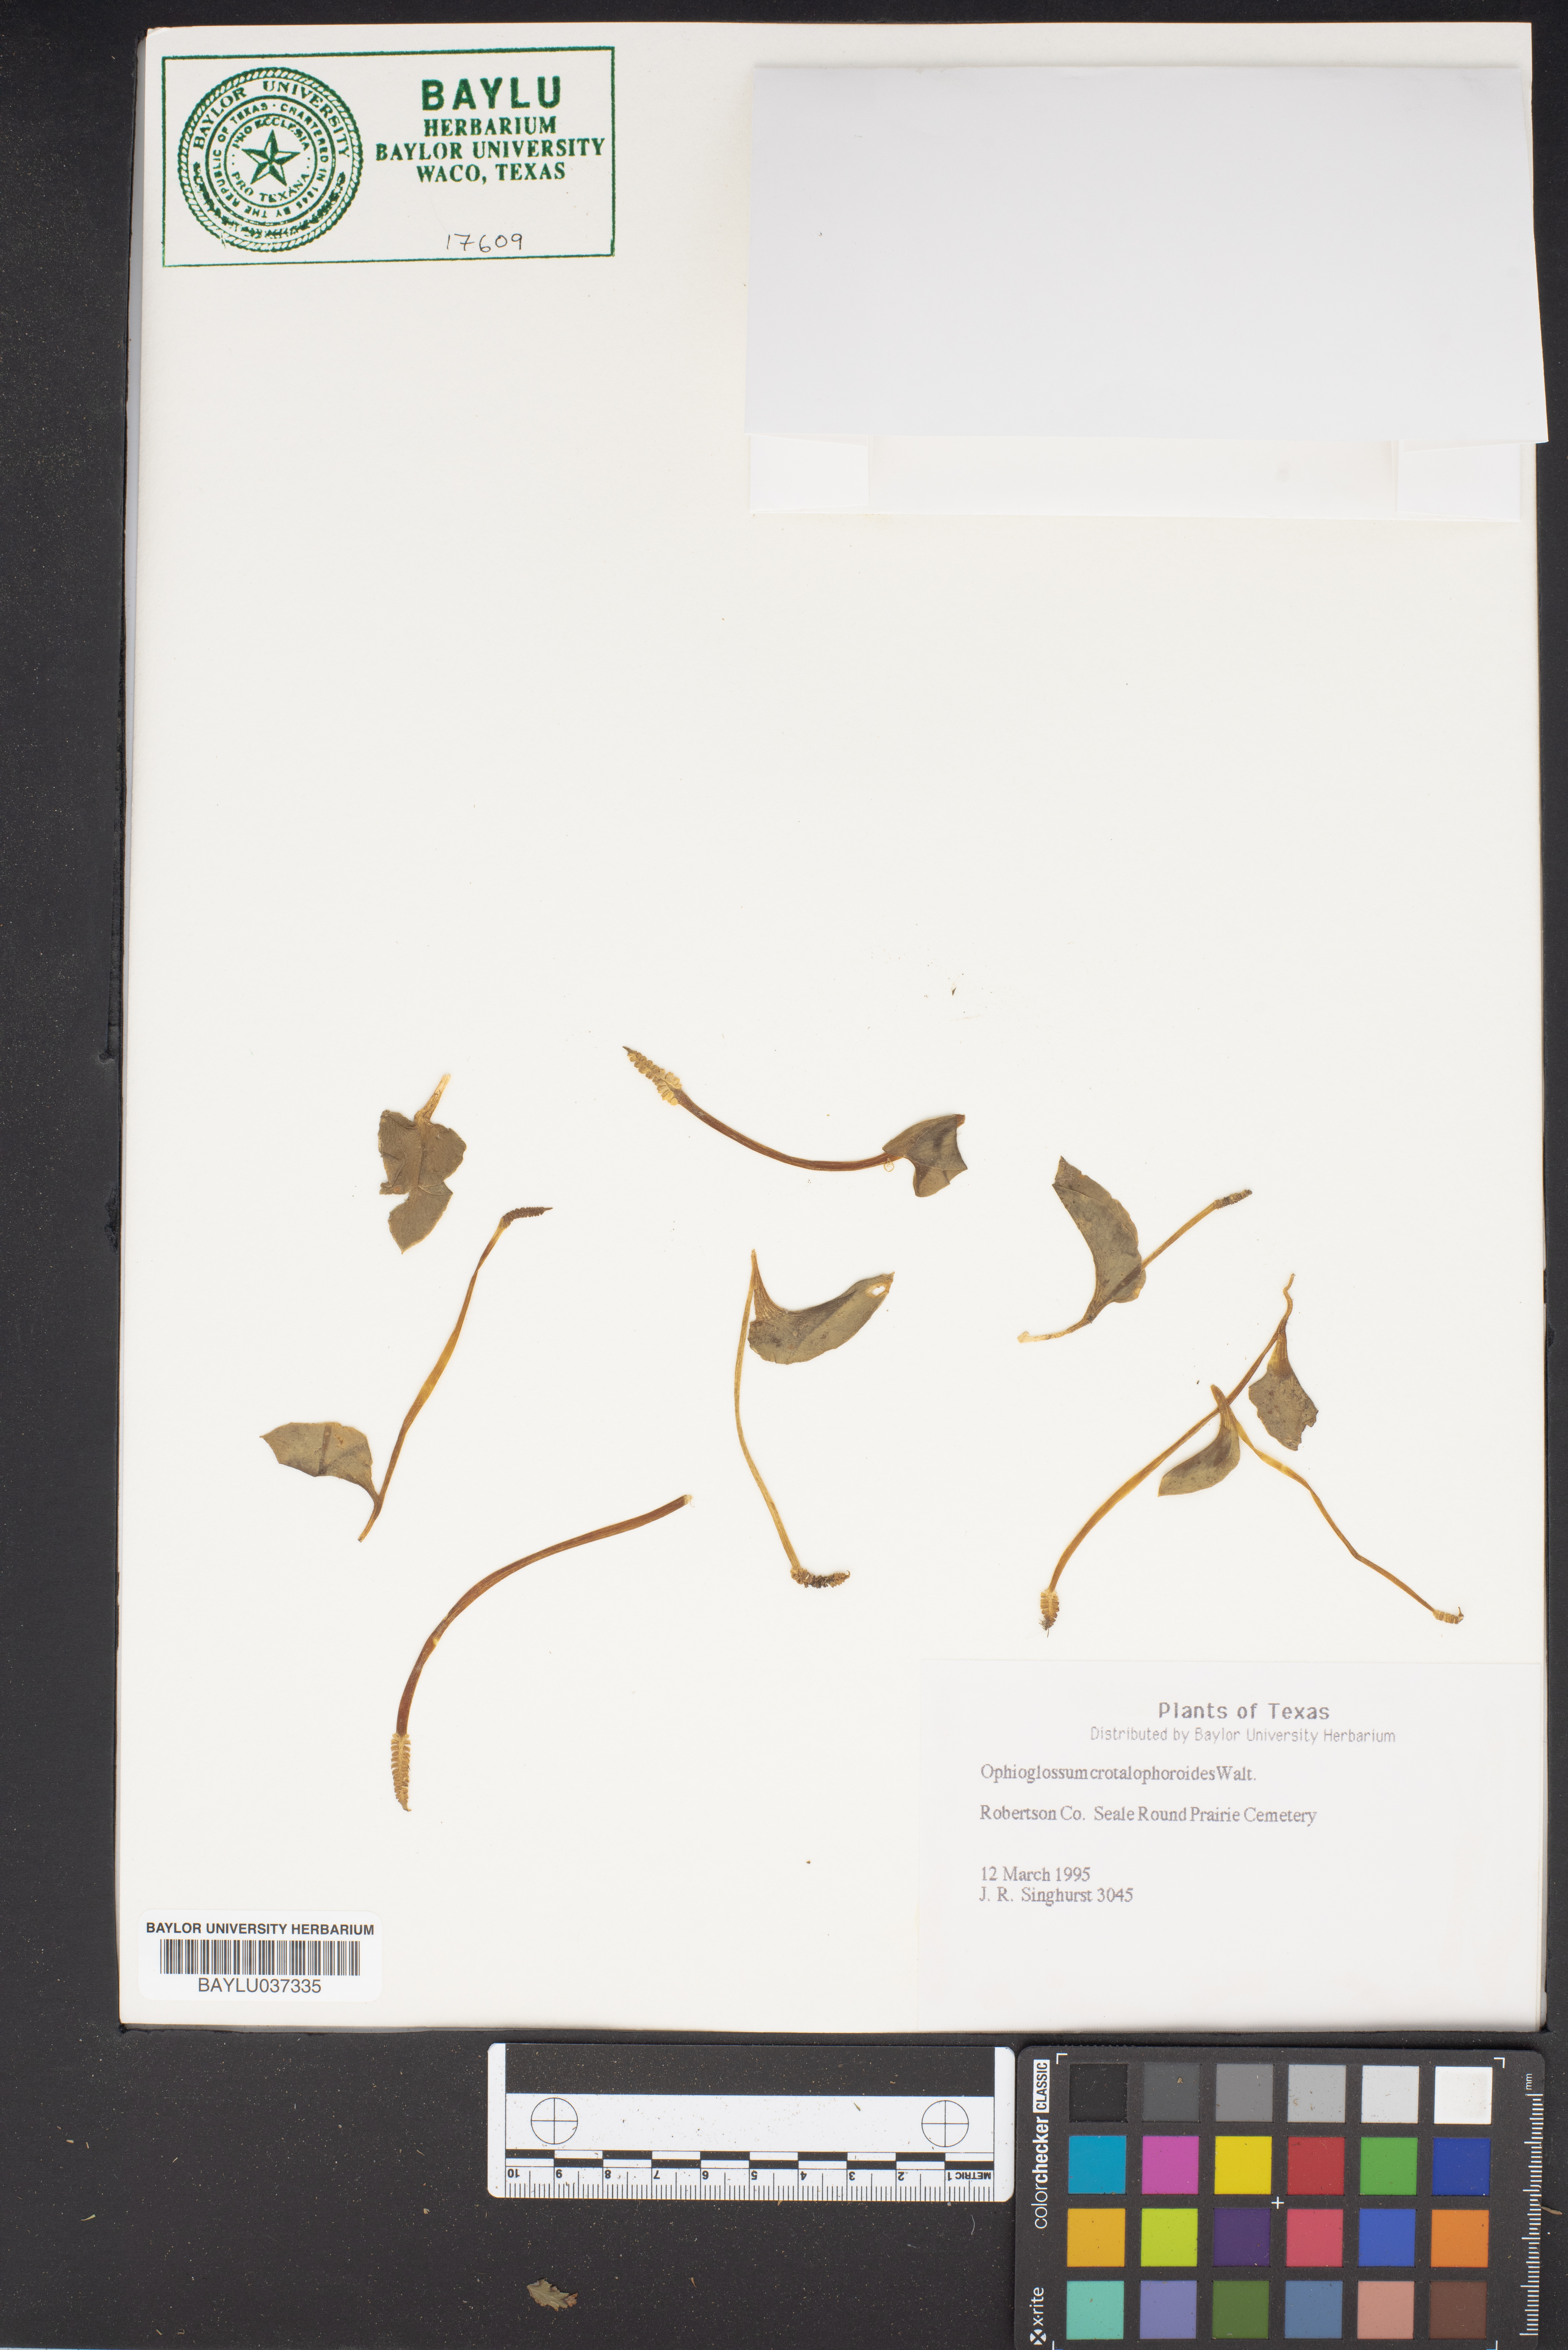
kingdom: Plantae
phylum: Tracheophyta
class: Polypodiopsida
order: Ophioglossales
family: Ophioglossaceae
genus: Ophioglossum
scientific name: Ophioglossum crotalophoroides
